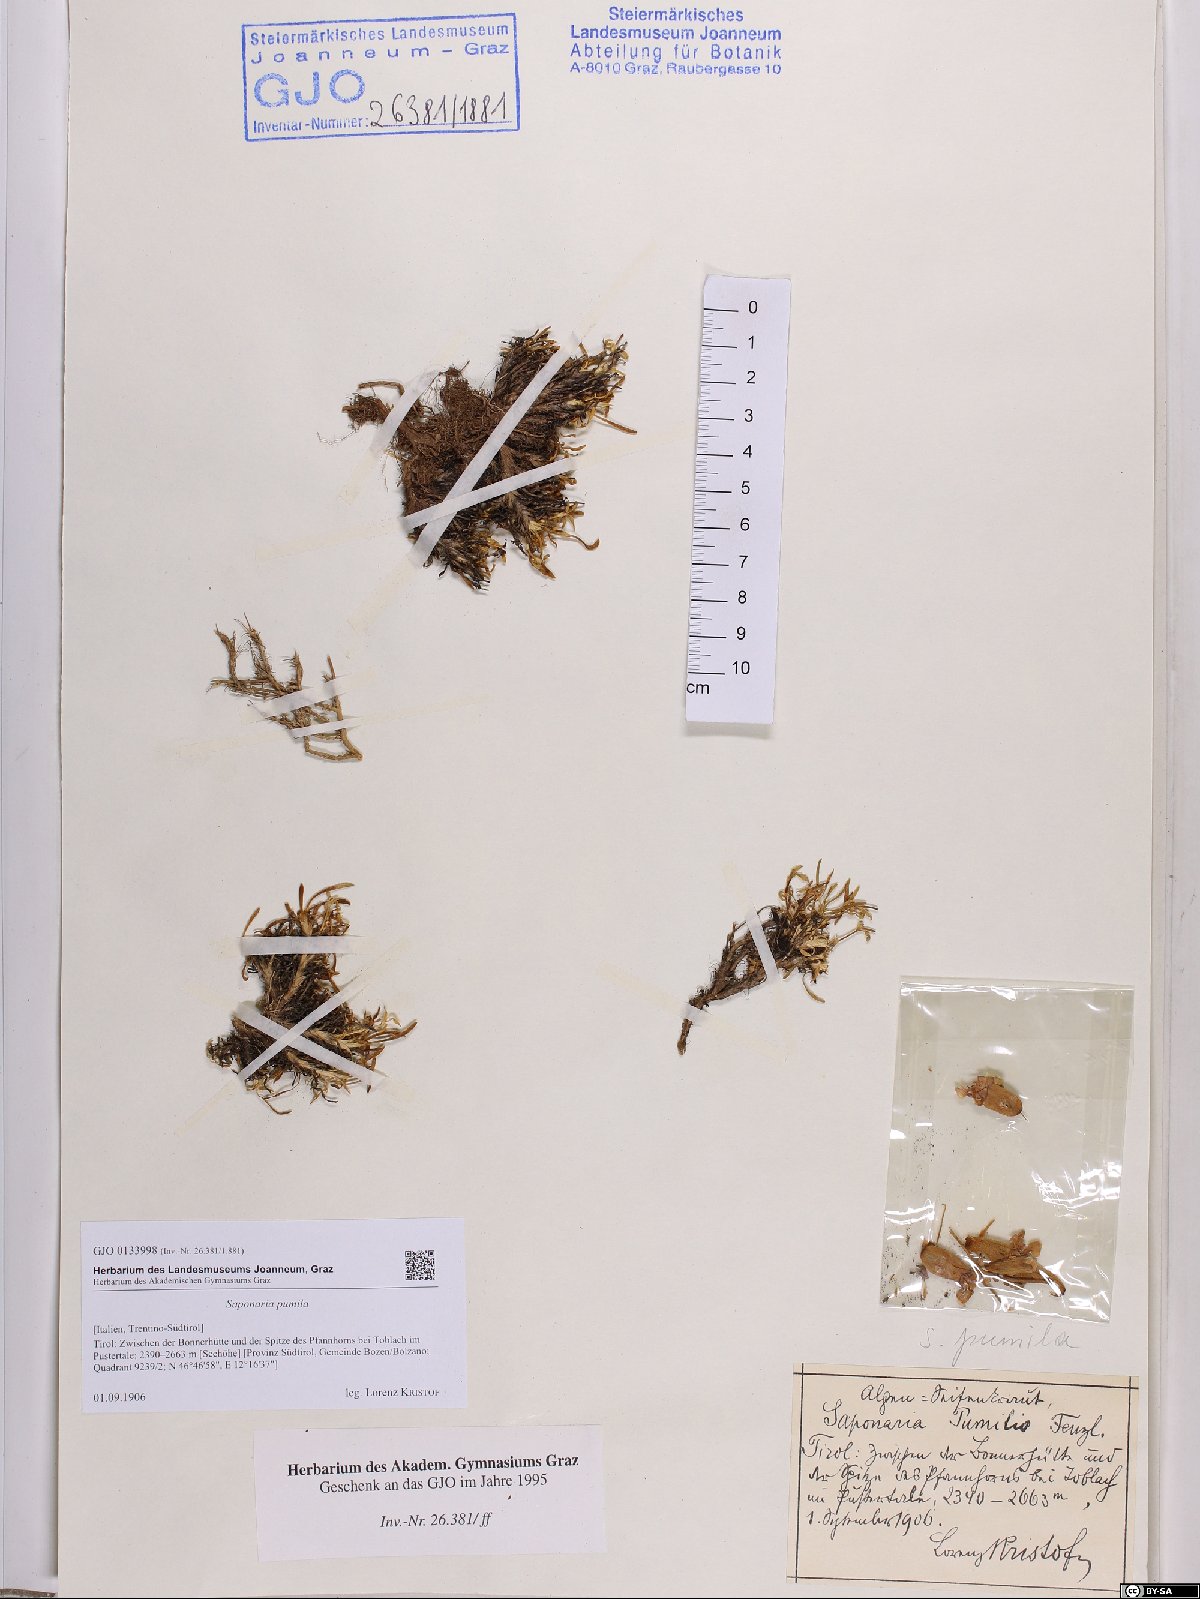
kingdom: Plantae
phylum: Tracheophyta
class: Magnoliopsida
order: Caryophyllales
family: Caryophyllaceae
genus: Saponaria
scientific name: Saponaria pumila
